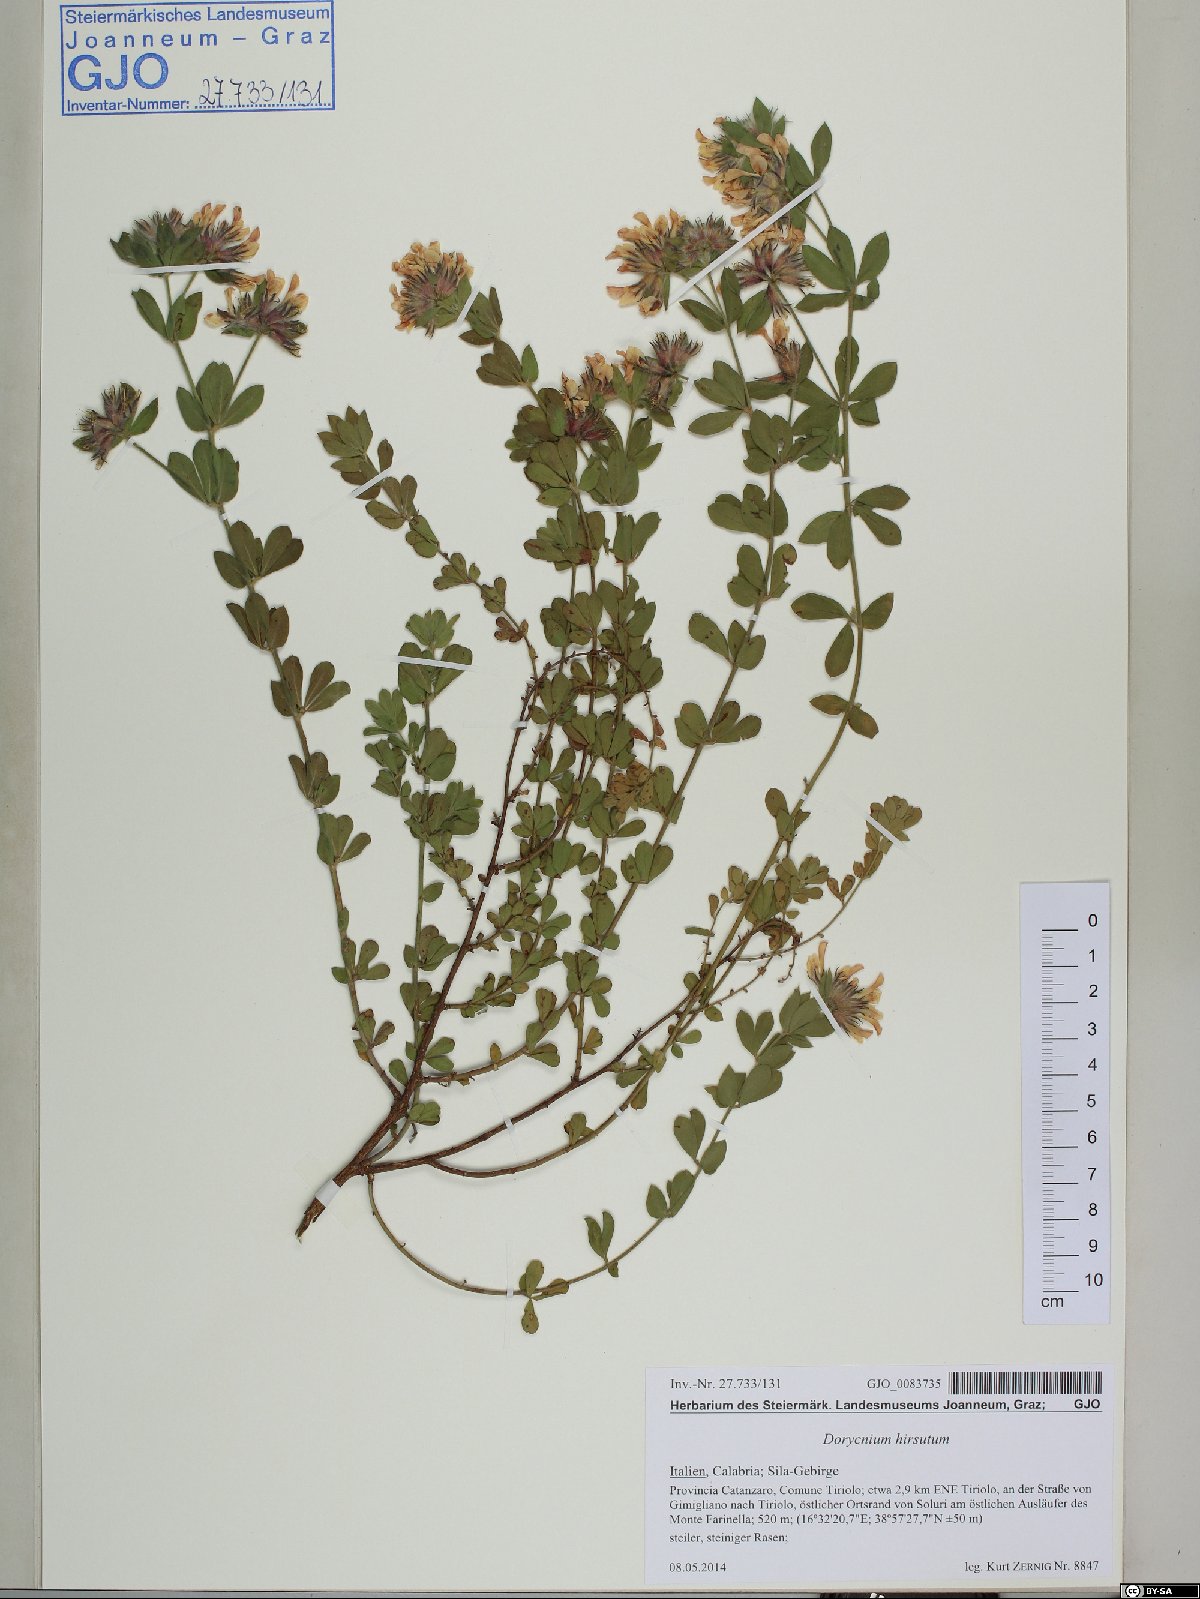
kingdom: Plantae
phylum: Tracheophyta
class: Magnoliopsida
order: Fabales
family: Fabaceae
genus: Lotus
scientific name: Lotus hirsutus
